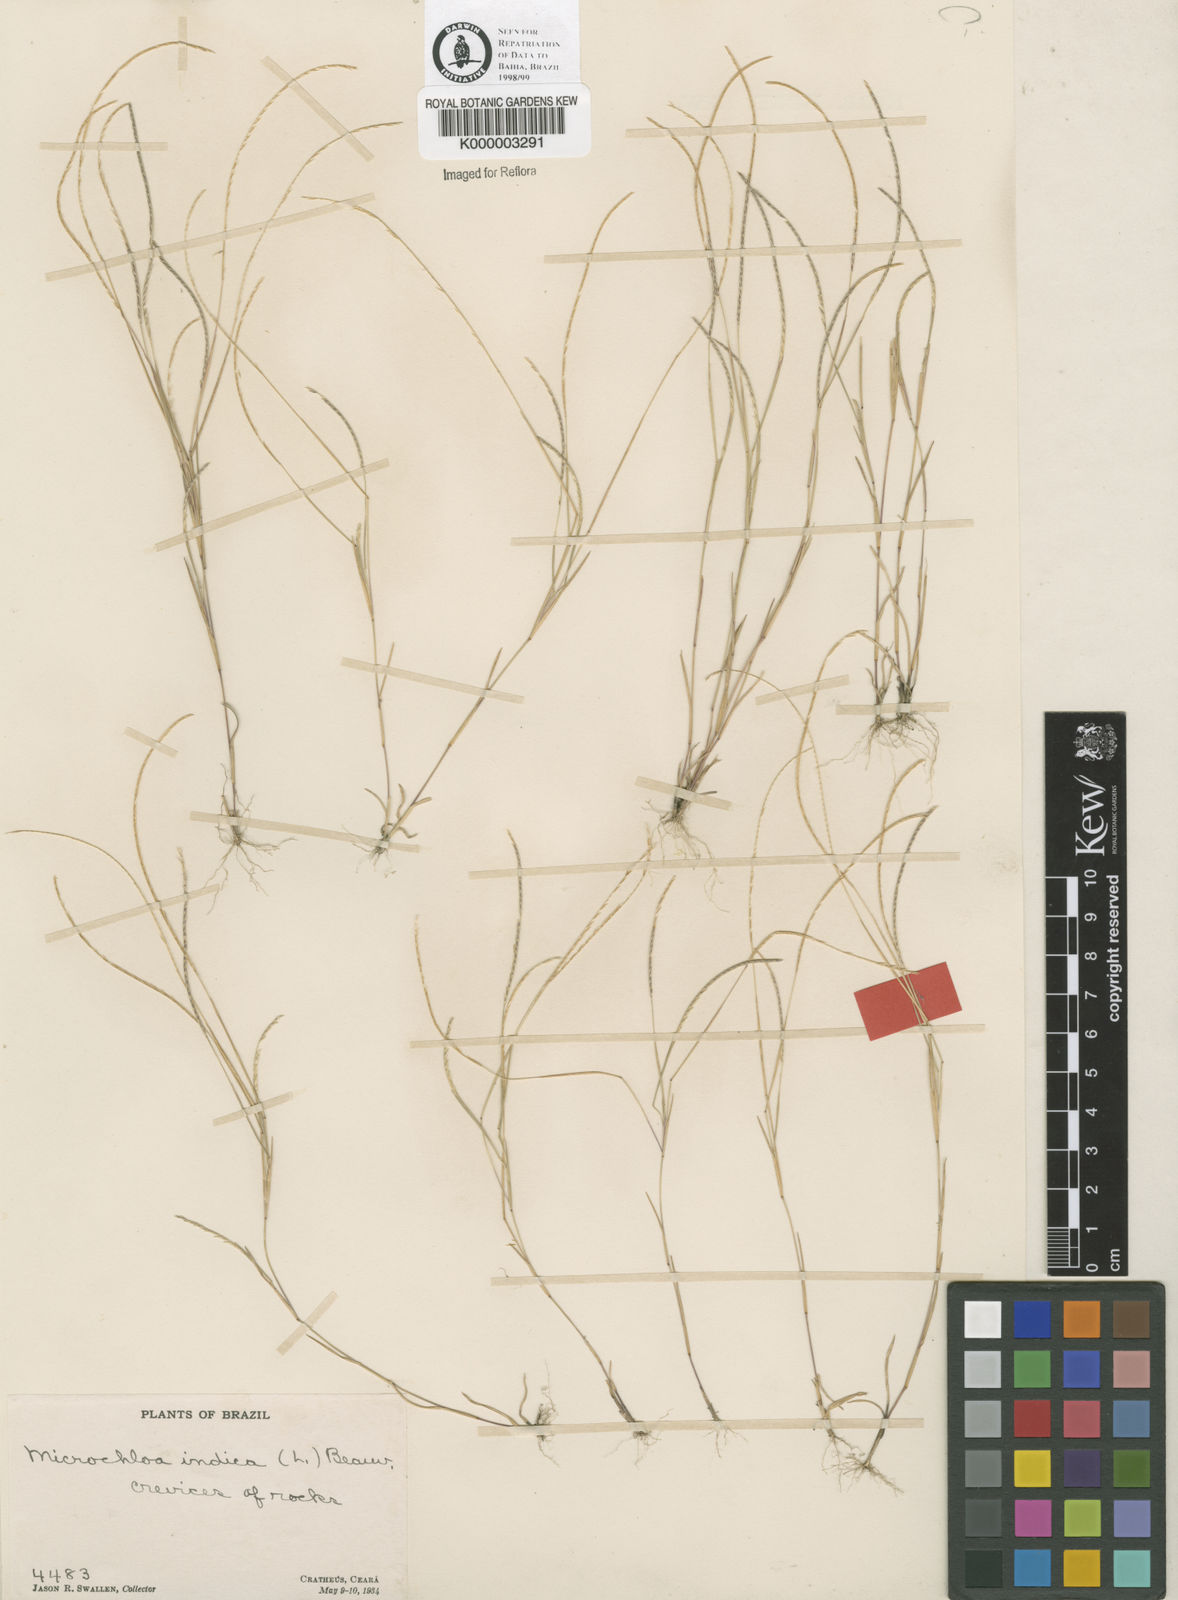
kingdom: Plantae
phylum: Tracheophyta
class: Liliopsida
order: Poales
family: Poaceae
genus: Microchloa
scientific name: Microchloa indica
